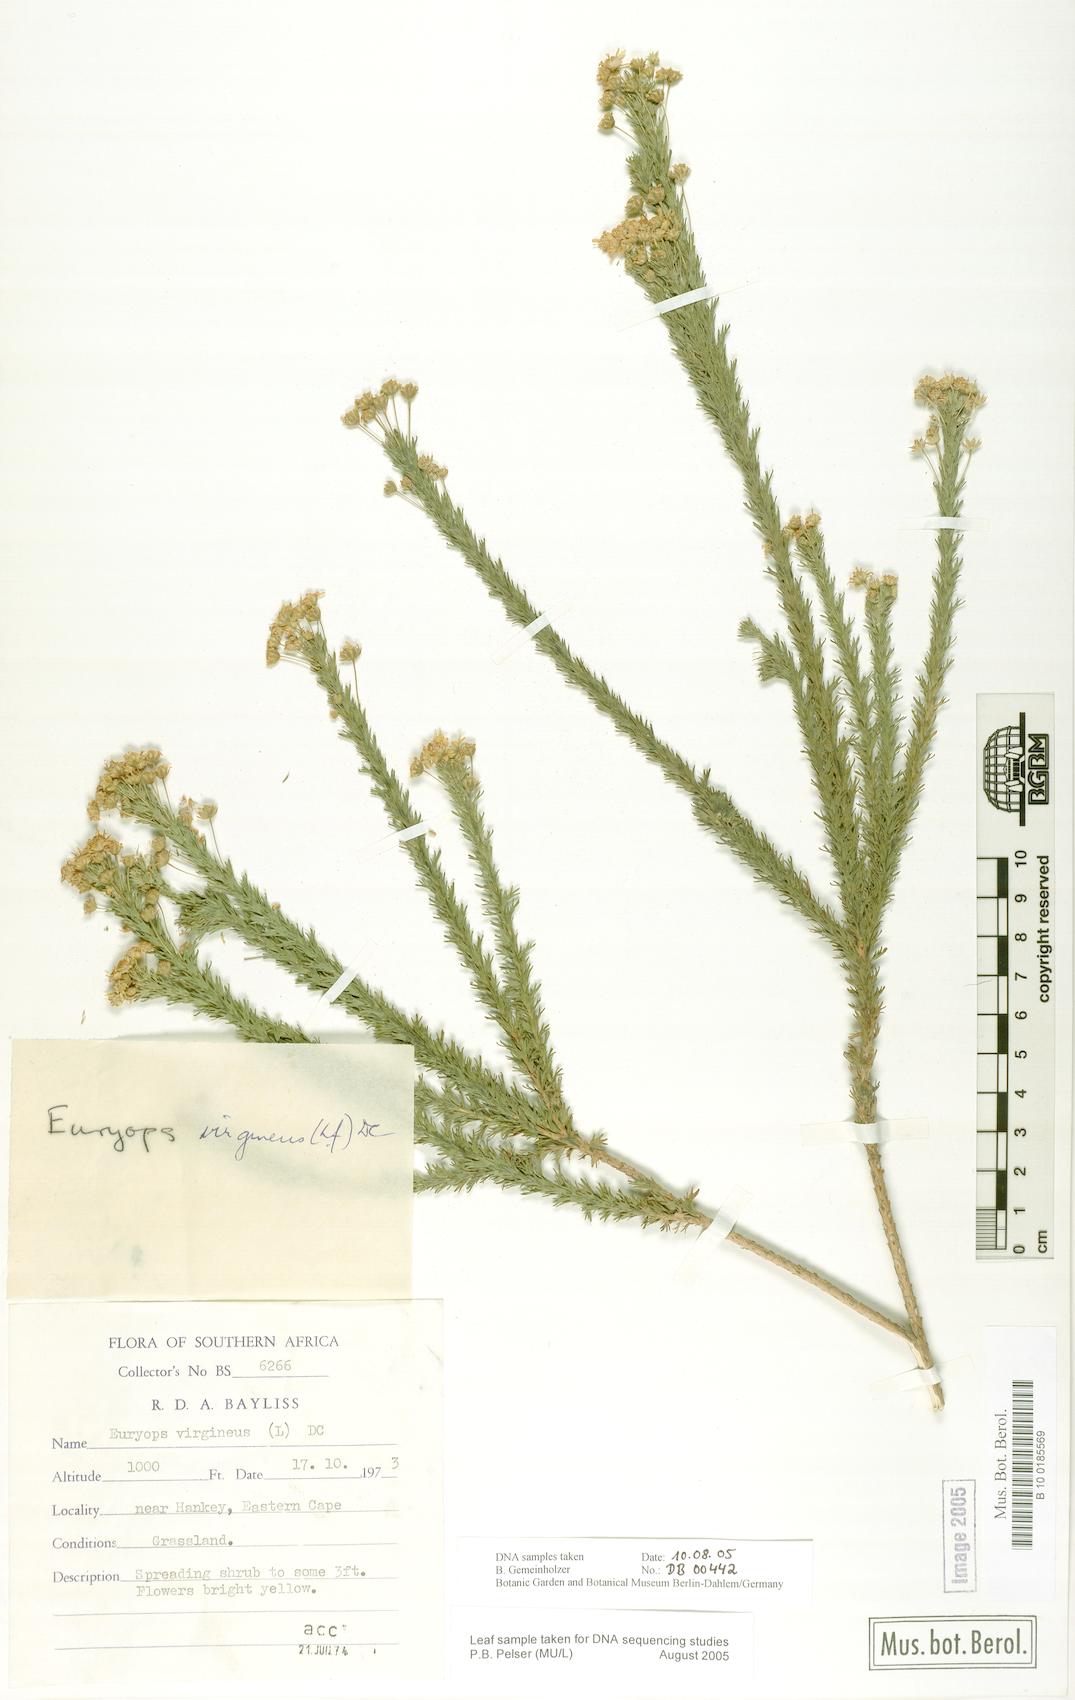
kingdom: Plantae
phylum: Tracheophyta
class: Magnoliopsida
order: Asterales
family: Asteraceae
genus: Euryops
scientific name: Euryops virgineus
